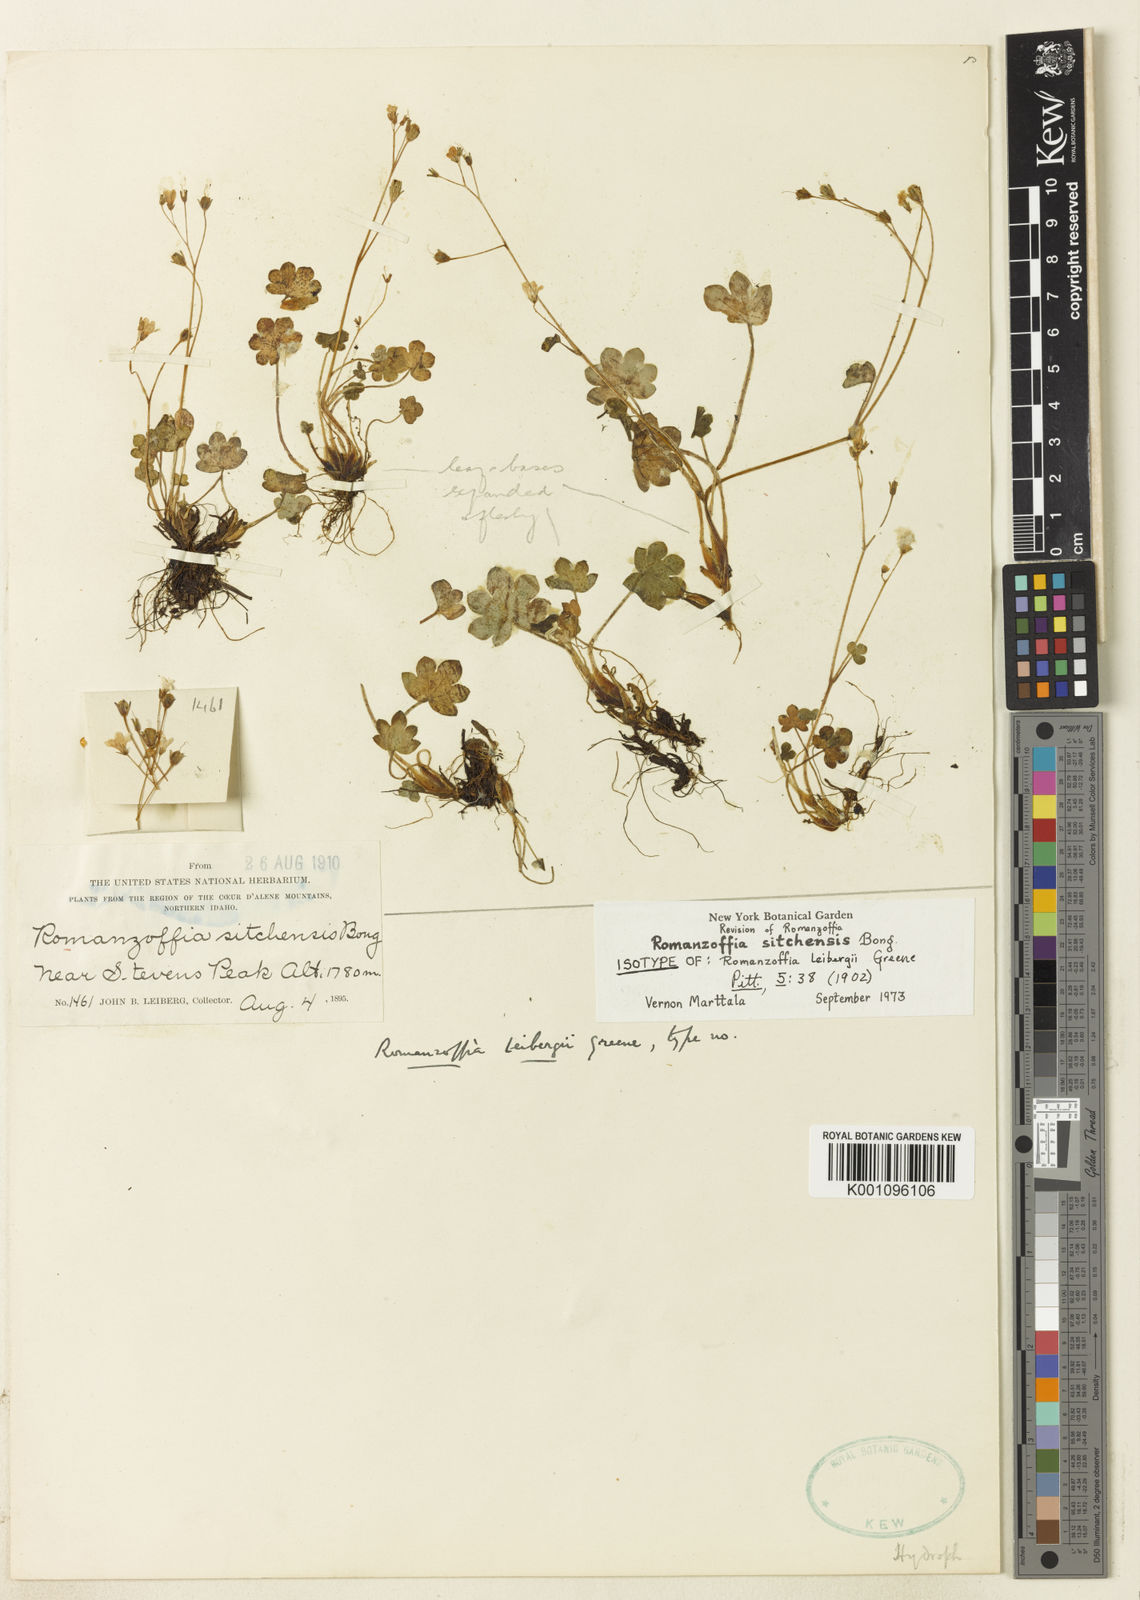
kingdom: Plantae
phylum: Tracheophyta
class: Magnoliopsida
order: Boraginales
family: Hydrophyllaceae
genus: Romanzoffia
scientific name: Romanzoffia
